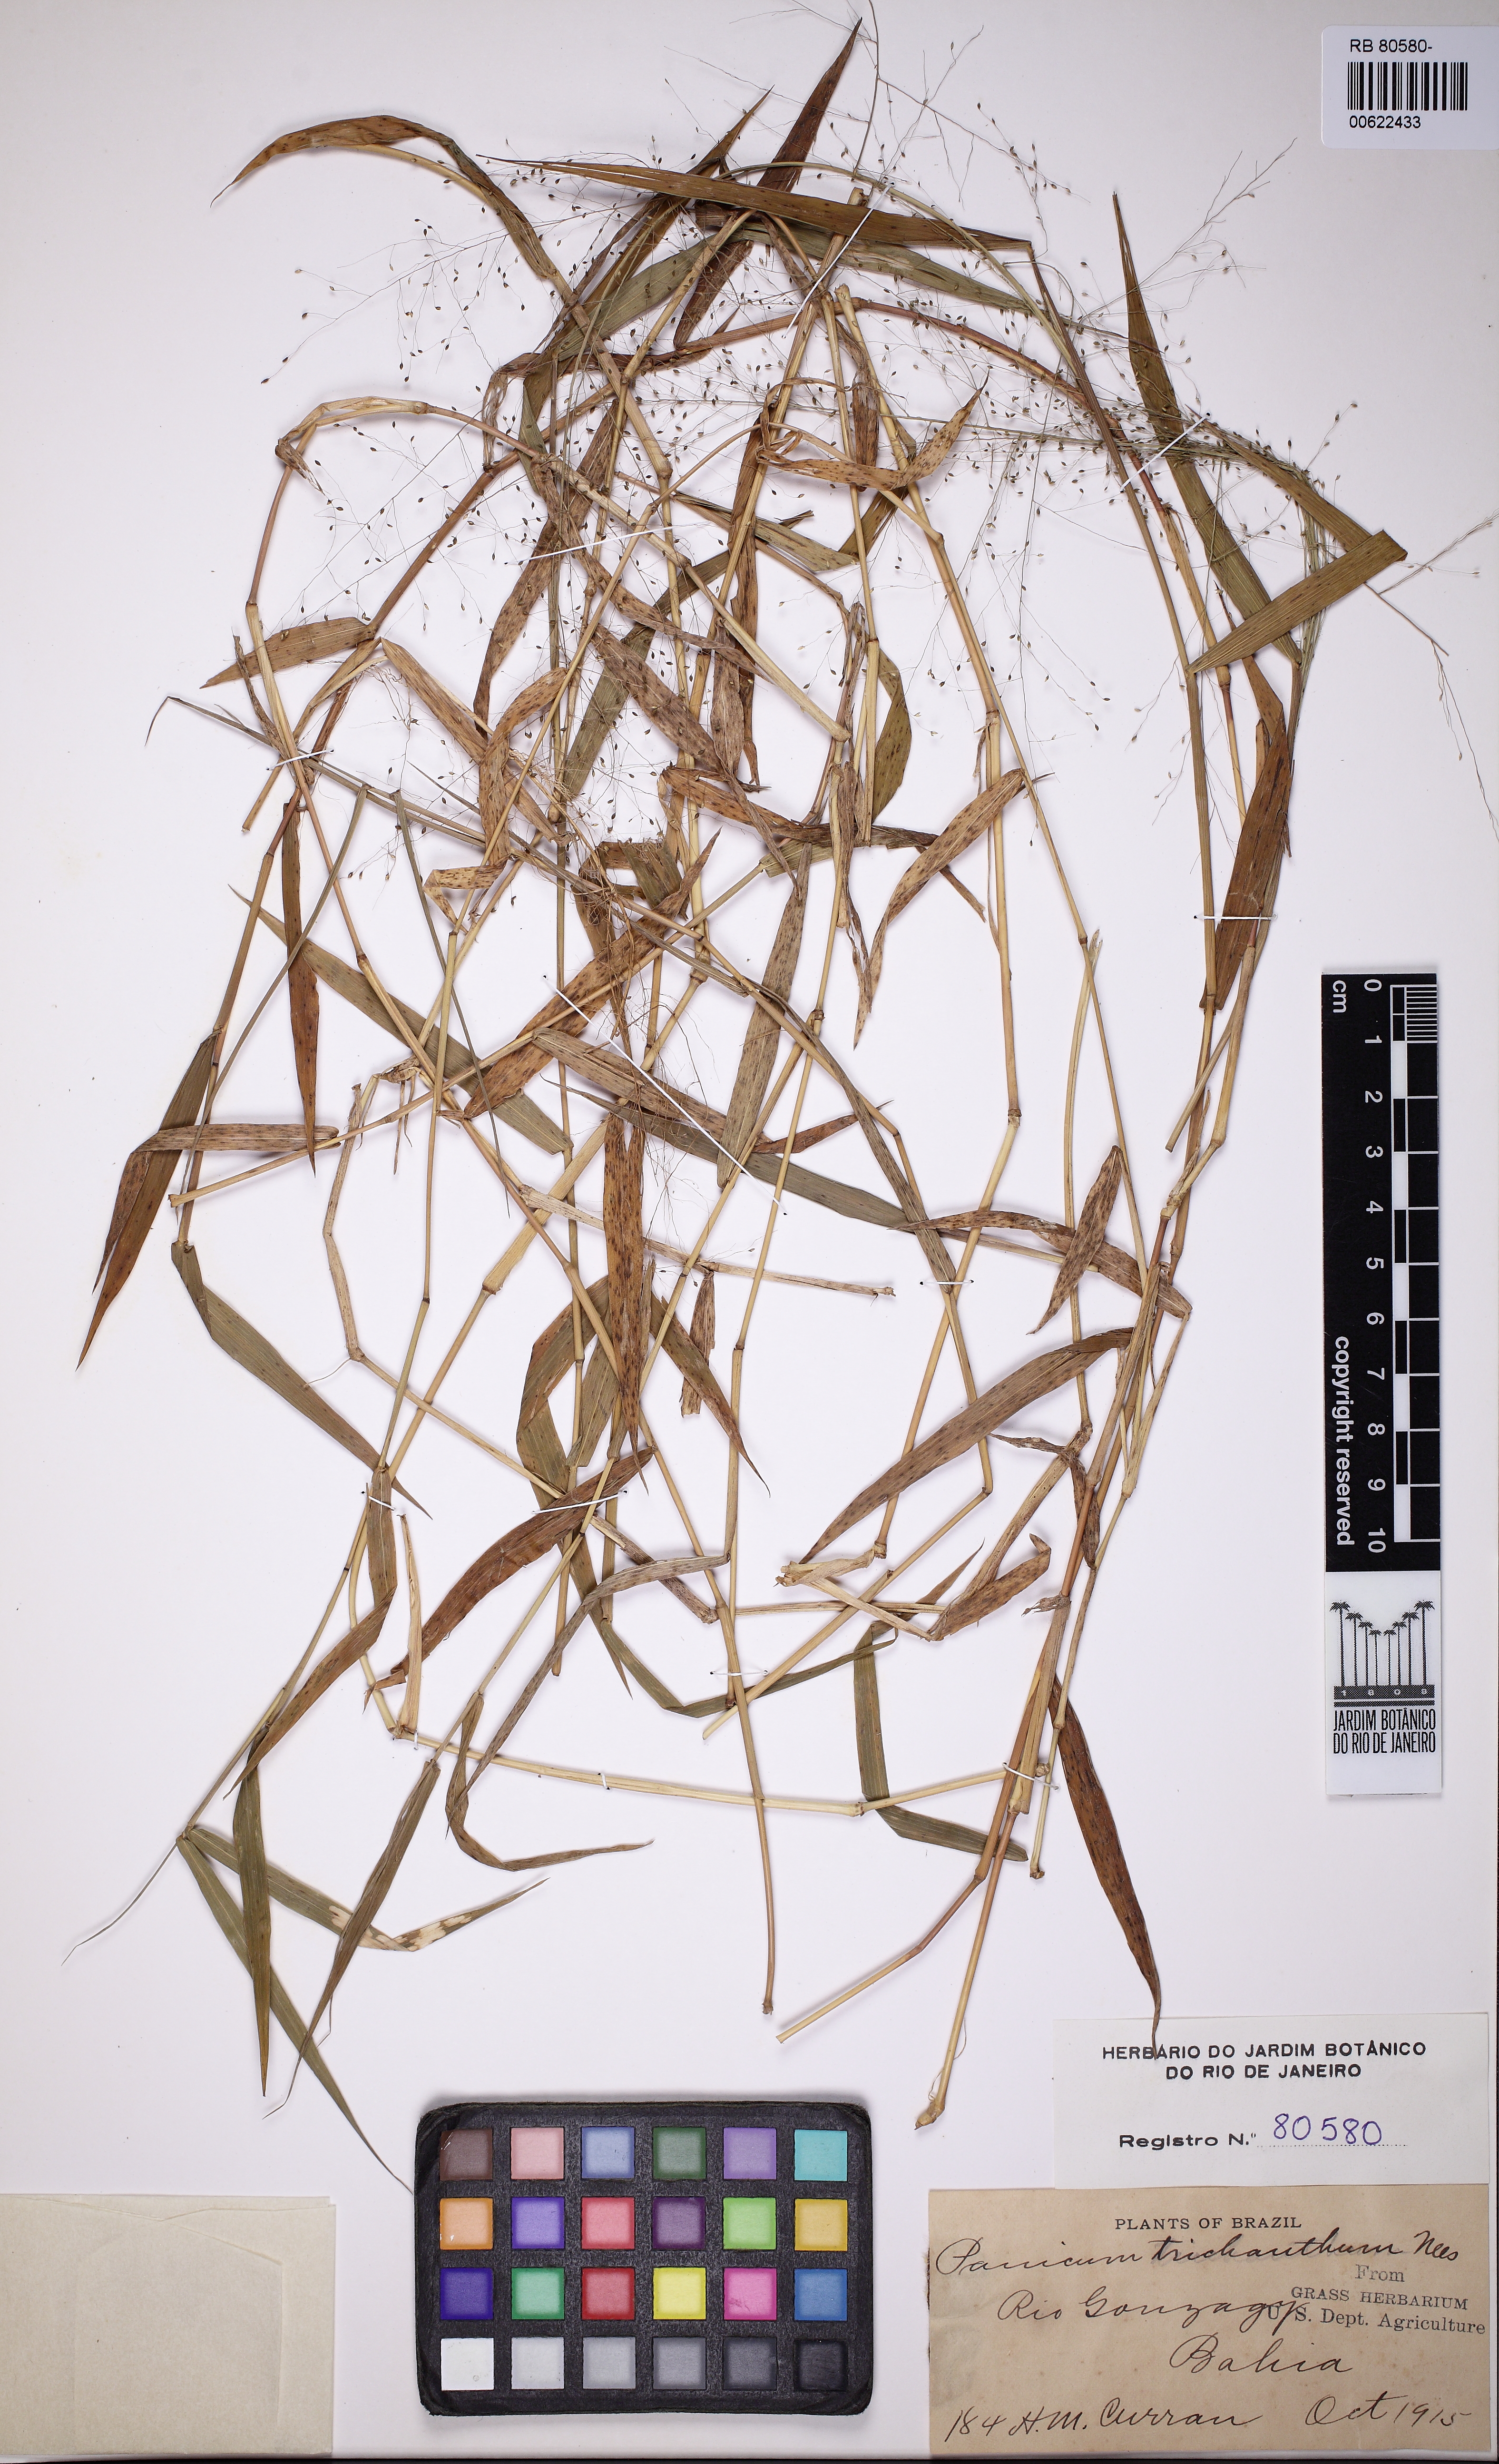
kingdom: Plantae
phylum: Tracheophyta
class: Liliopsida
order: Poales
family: Poaceae
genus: Panicum
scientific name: Panicum trichanthum
